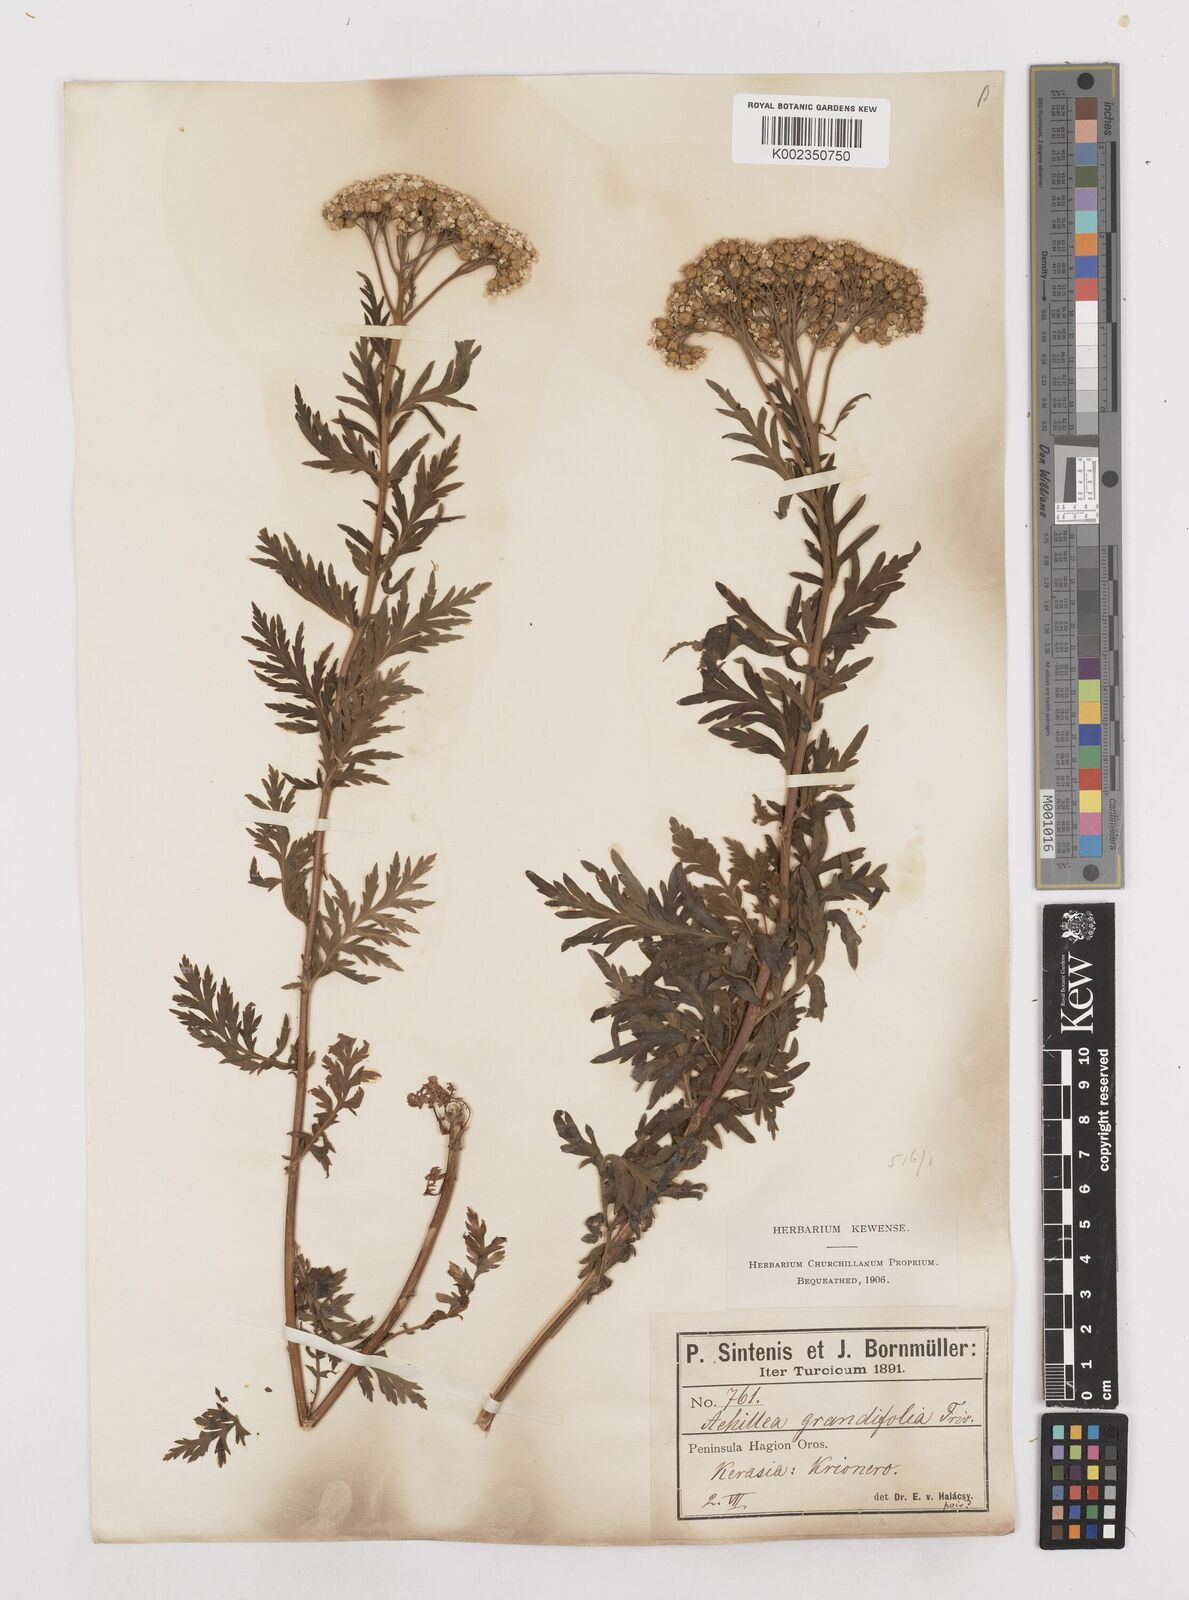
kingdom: Plantae
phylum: Tracheophyta
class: Magnoliopsida
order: Asterales
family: Asteraceae
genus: Achillea
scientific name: Achillea grandifolia
